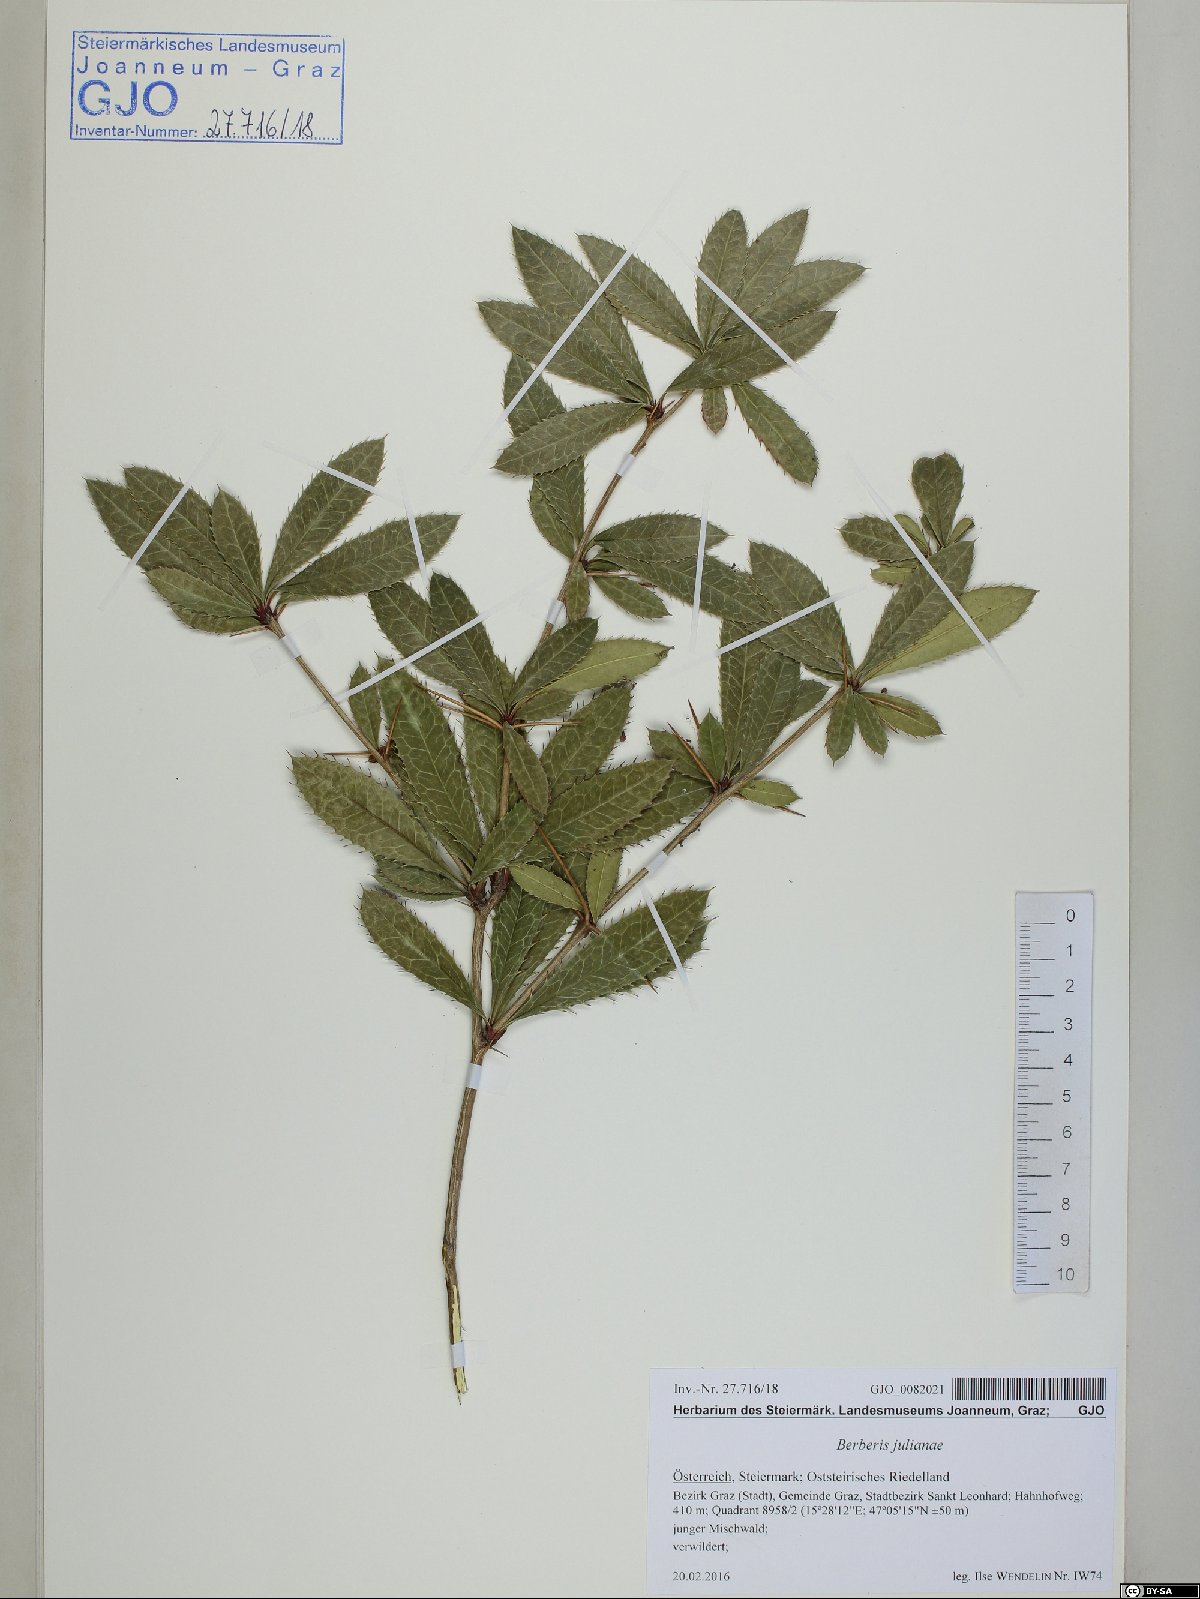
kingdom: Plantae
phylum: Tracheophyta
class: Magnoliopsida
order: Ranunculales
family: Berberidaceae
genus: Berberis
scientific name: Berberis julianae
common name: Wintergreen barberry
